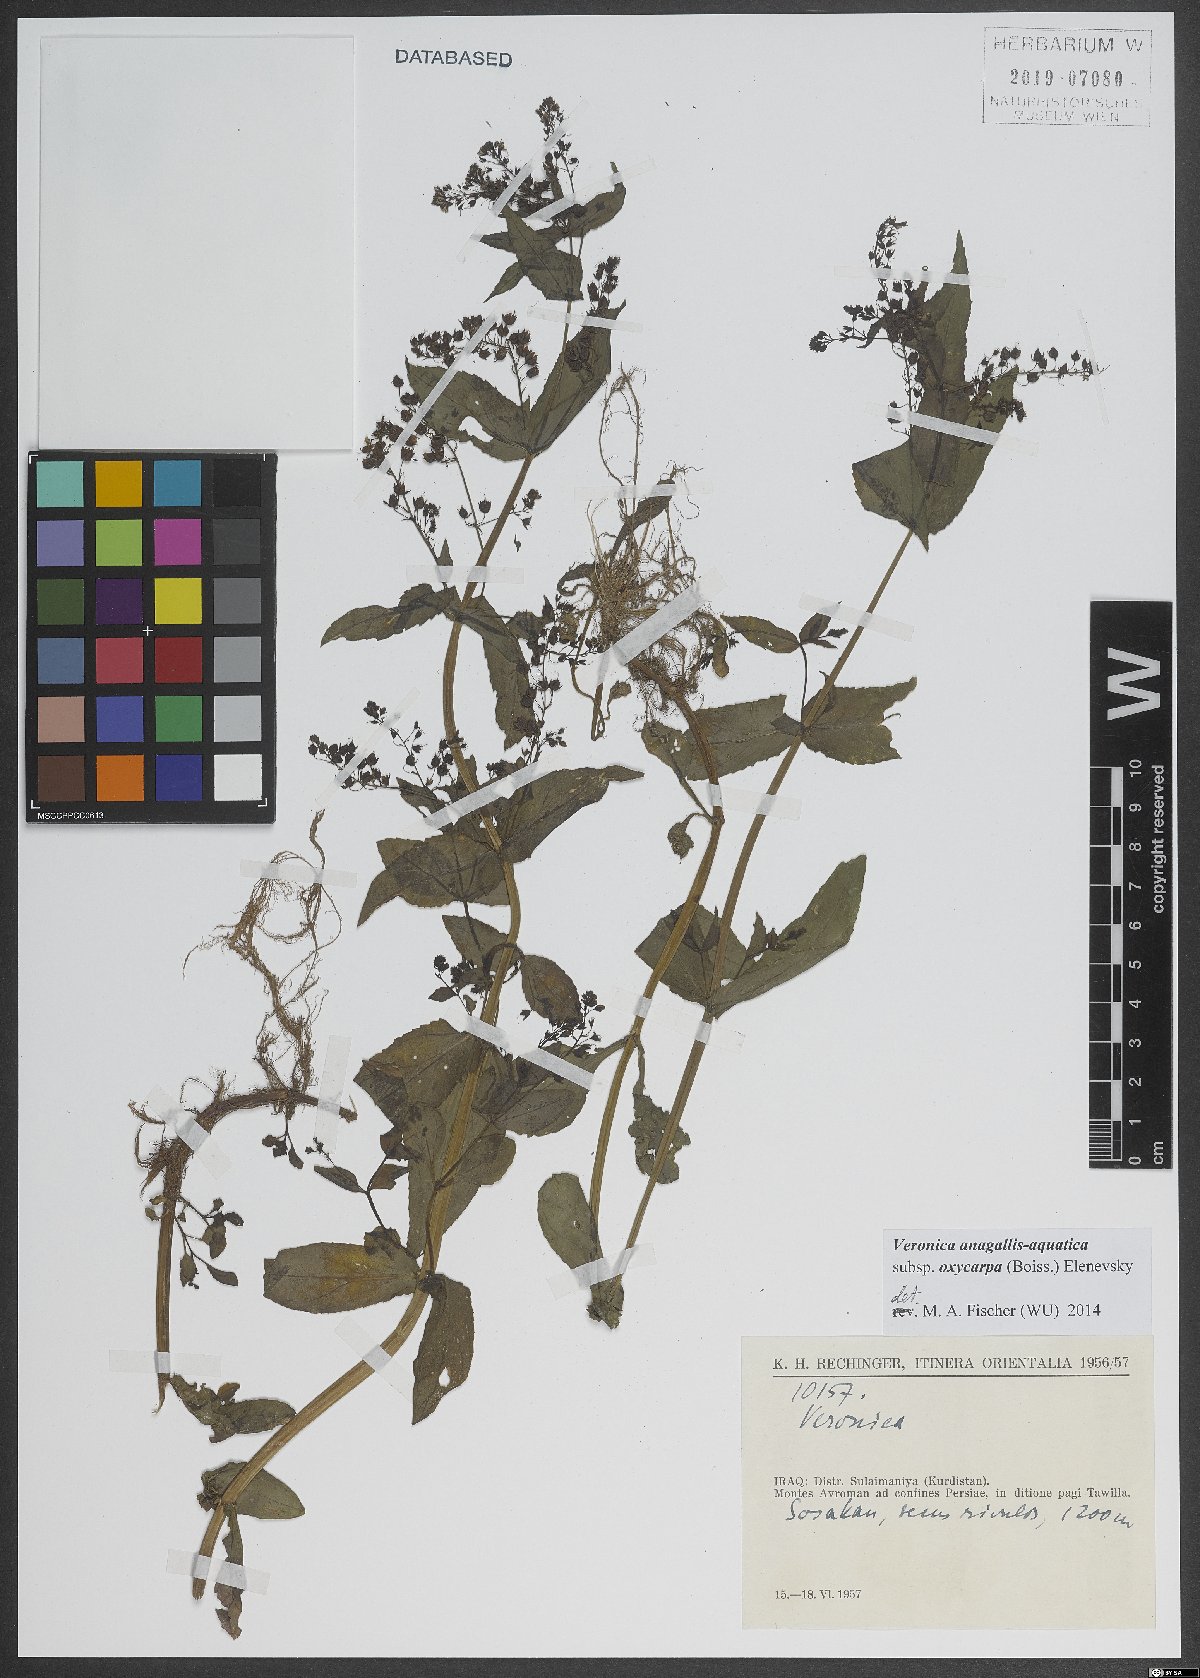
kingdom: Plantae
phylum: Tracheophyta
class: Magnoliopsida
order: Lamiales
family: Plantaginaceae
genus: Veronica
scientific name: Veronica oxycarpa
